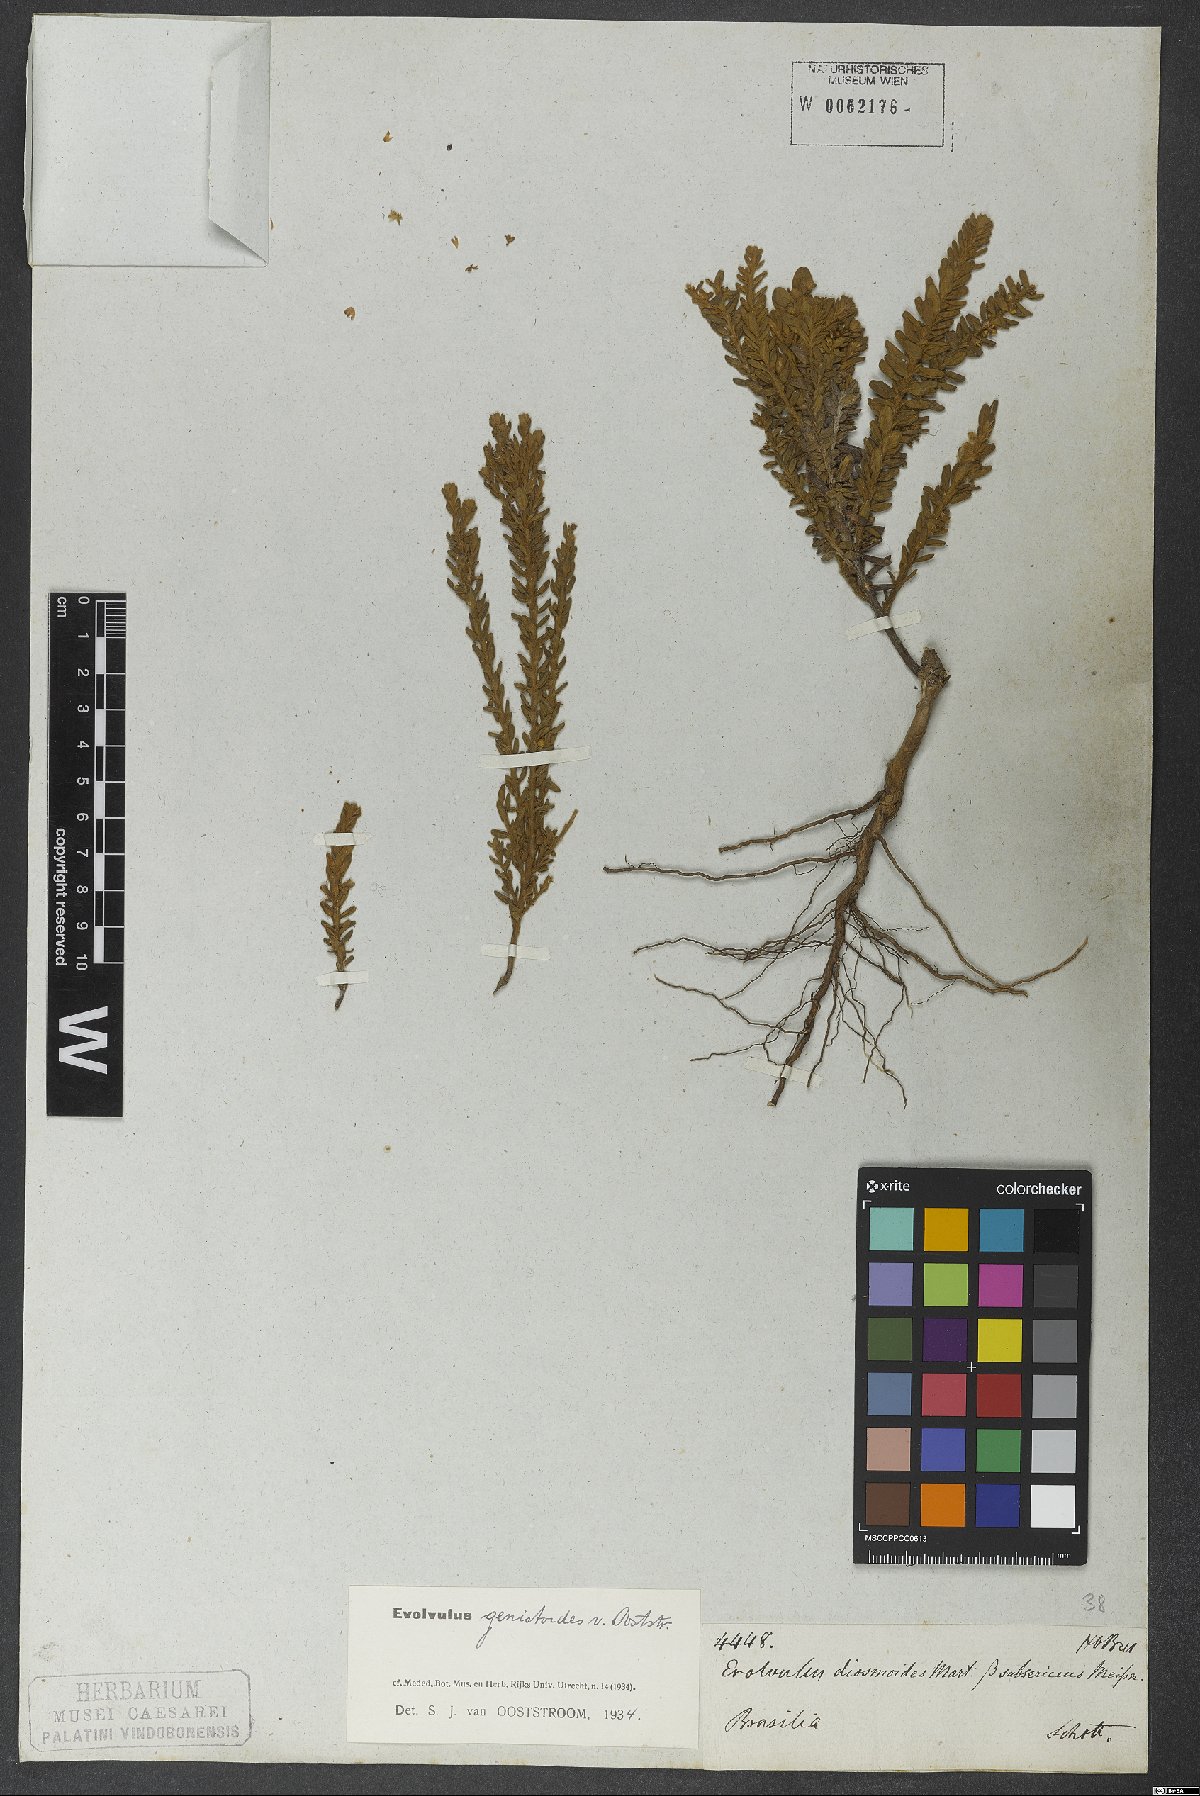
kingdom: Plantae
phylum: Tracheophyta
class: Magnoliopsida
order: Solanales
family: Convolvulaceae
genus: Evolvulus
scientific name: Evolvulus genistoides
